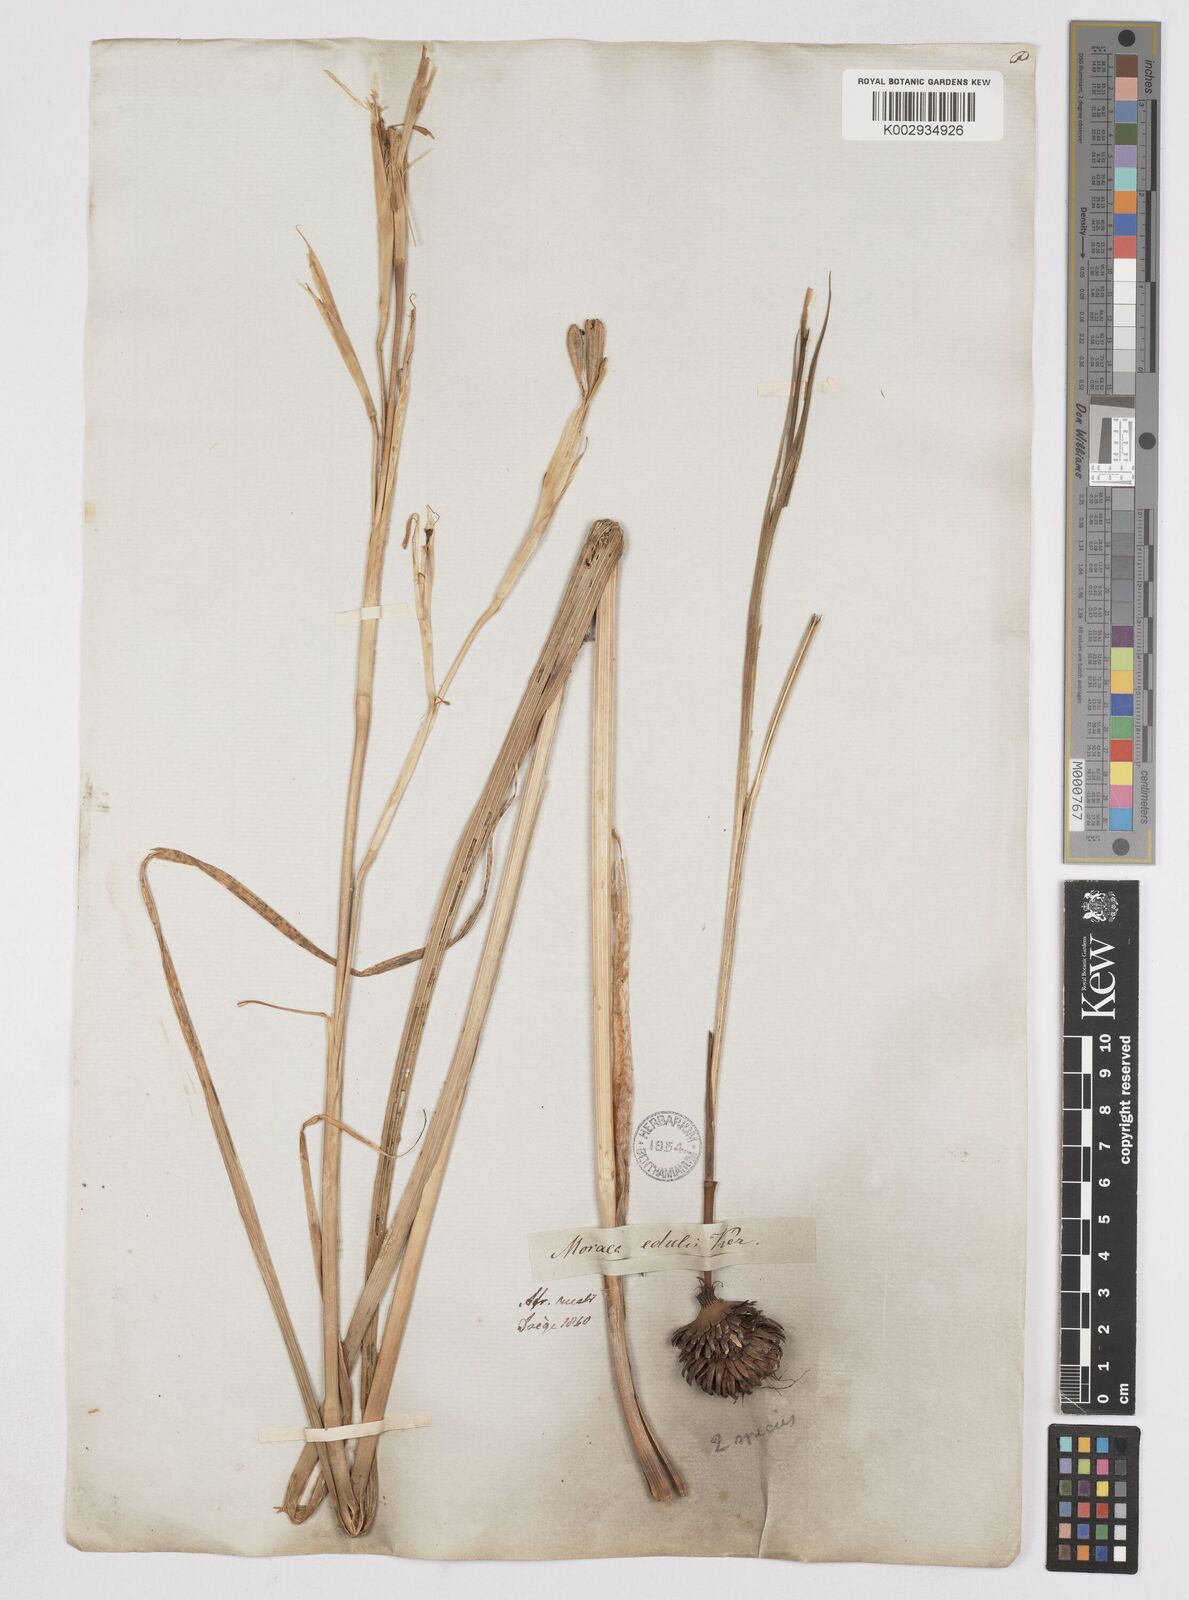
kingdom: Plantae
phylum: Tracheophyta
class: Liliopsida
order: Asparagales
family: Iridaceae
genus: Moraea
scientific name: Moraea
